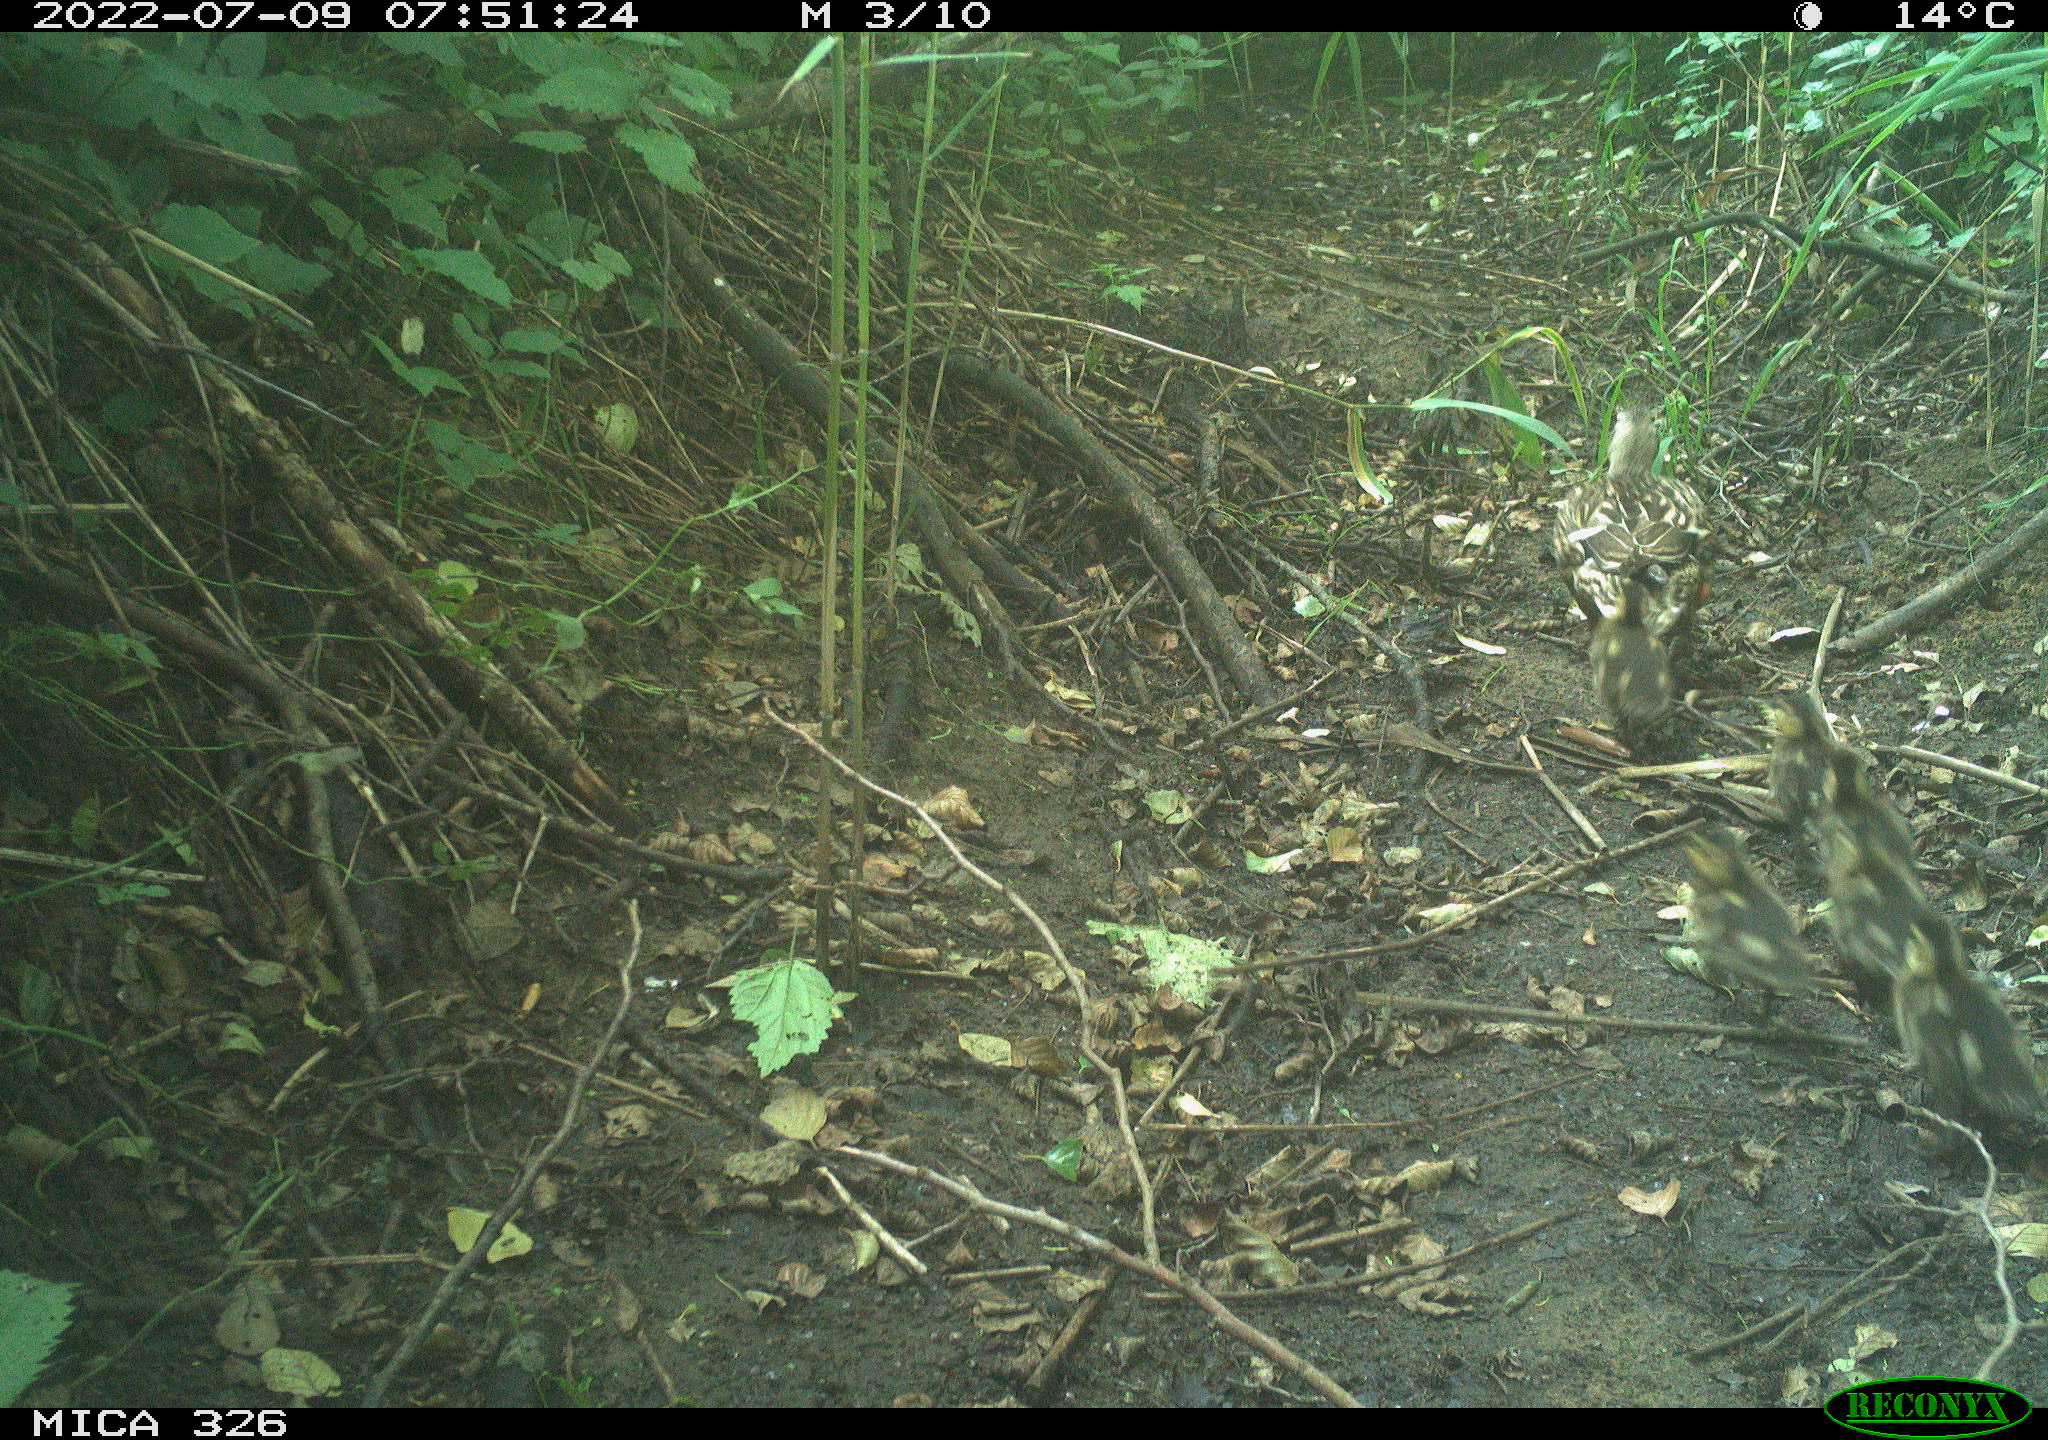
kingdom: Animalia
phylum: Chordata
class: Aves
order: Anseriformes
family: Anatidae
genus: Anas
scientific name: Anas
